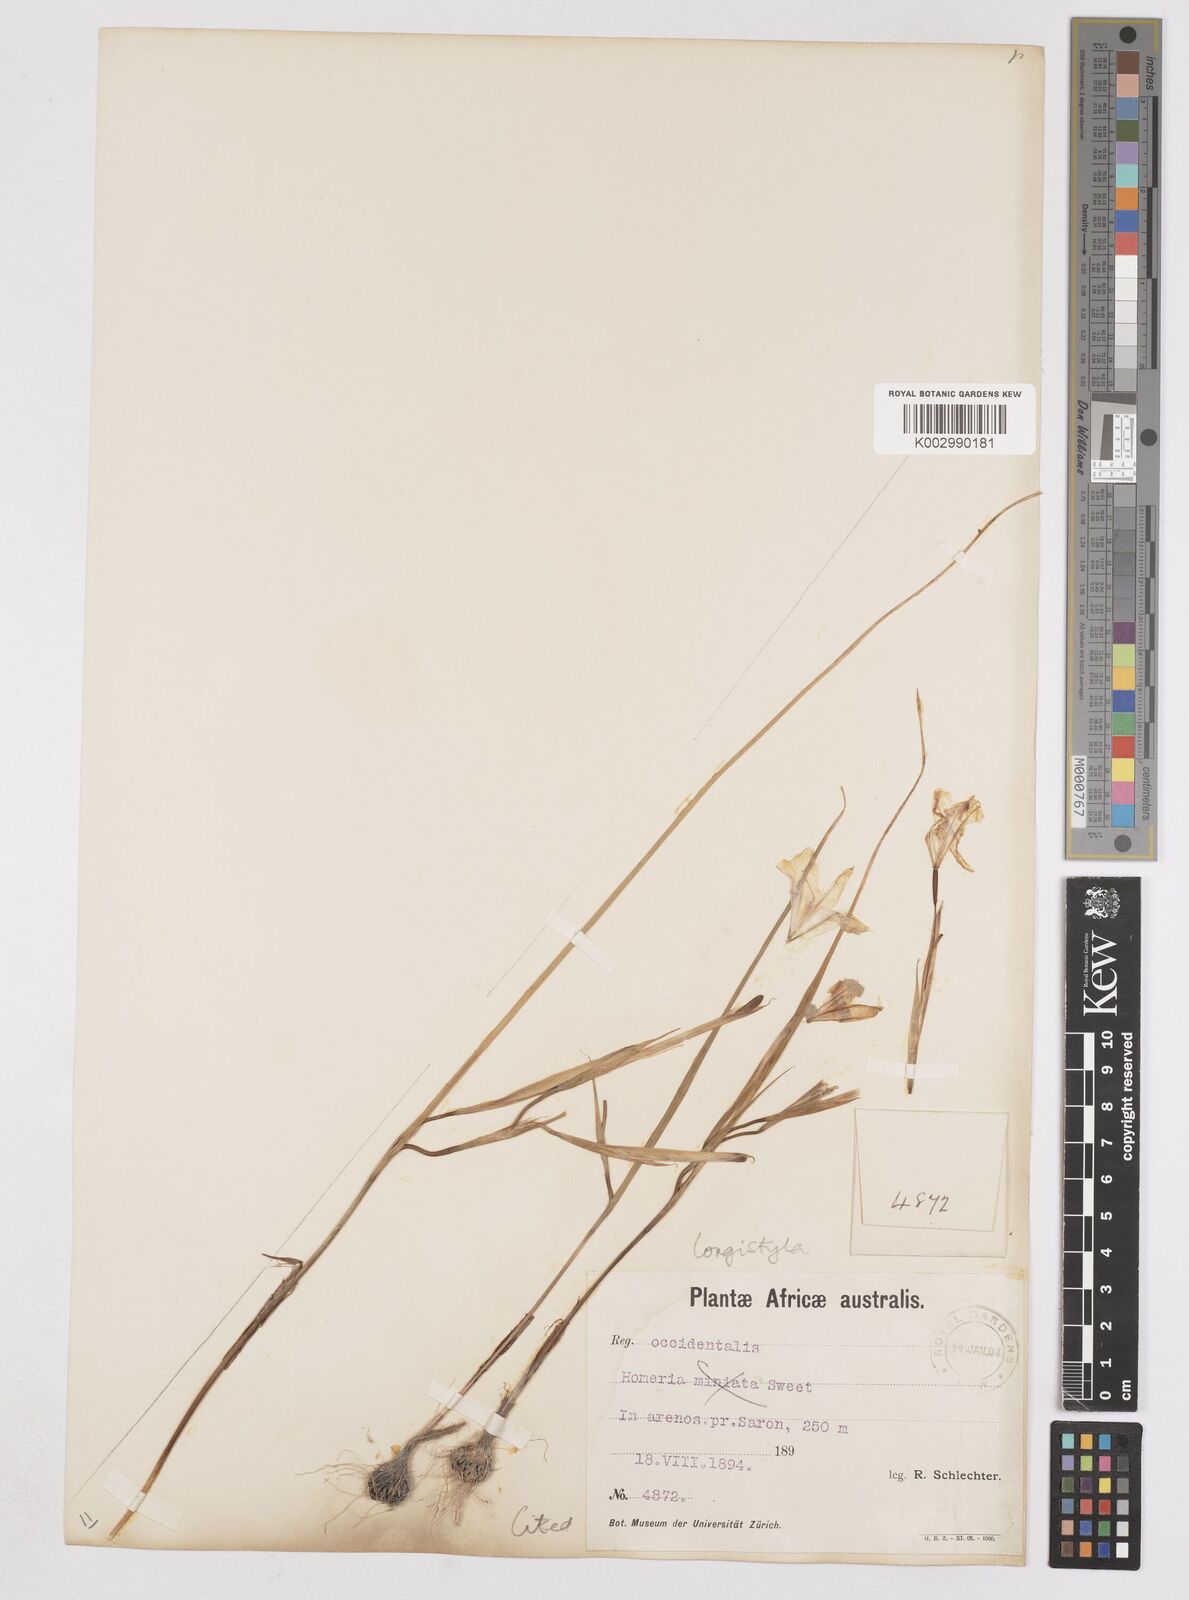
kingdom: Plantae
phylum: Tracheophyta
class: Liliopsida
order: Asparagales
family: Iridaceae
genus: Moraea
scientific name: Moraea longistyla
